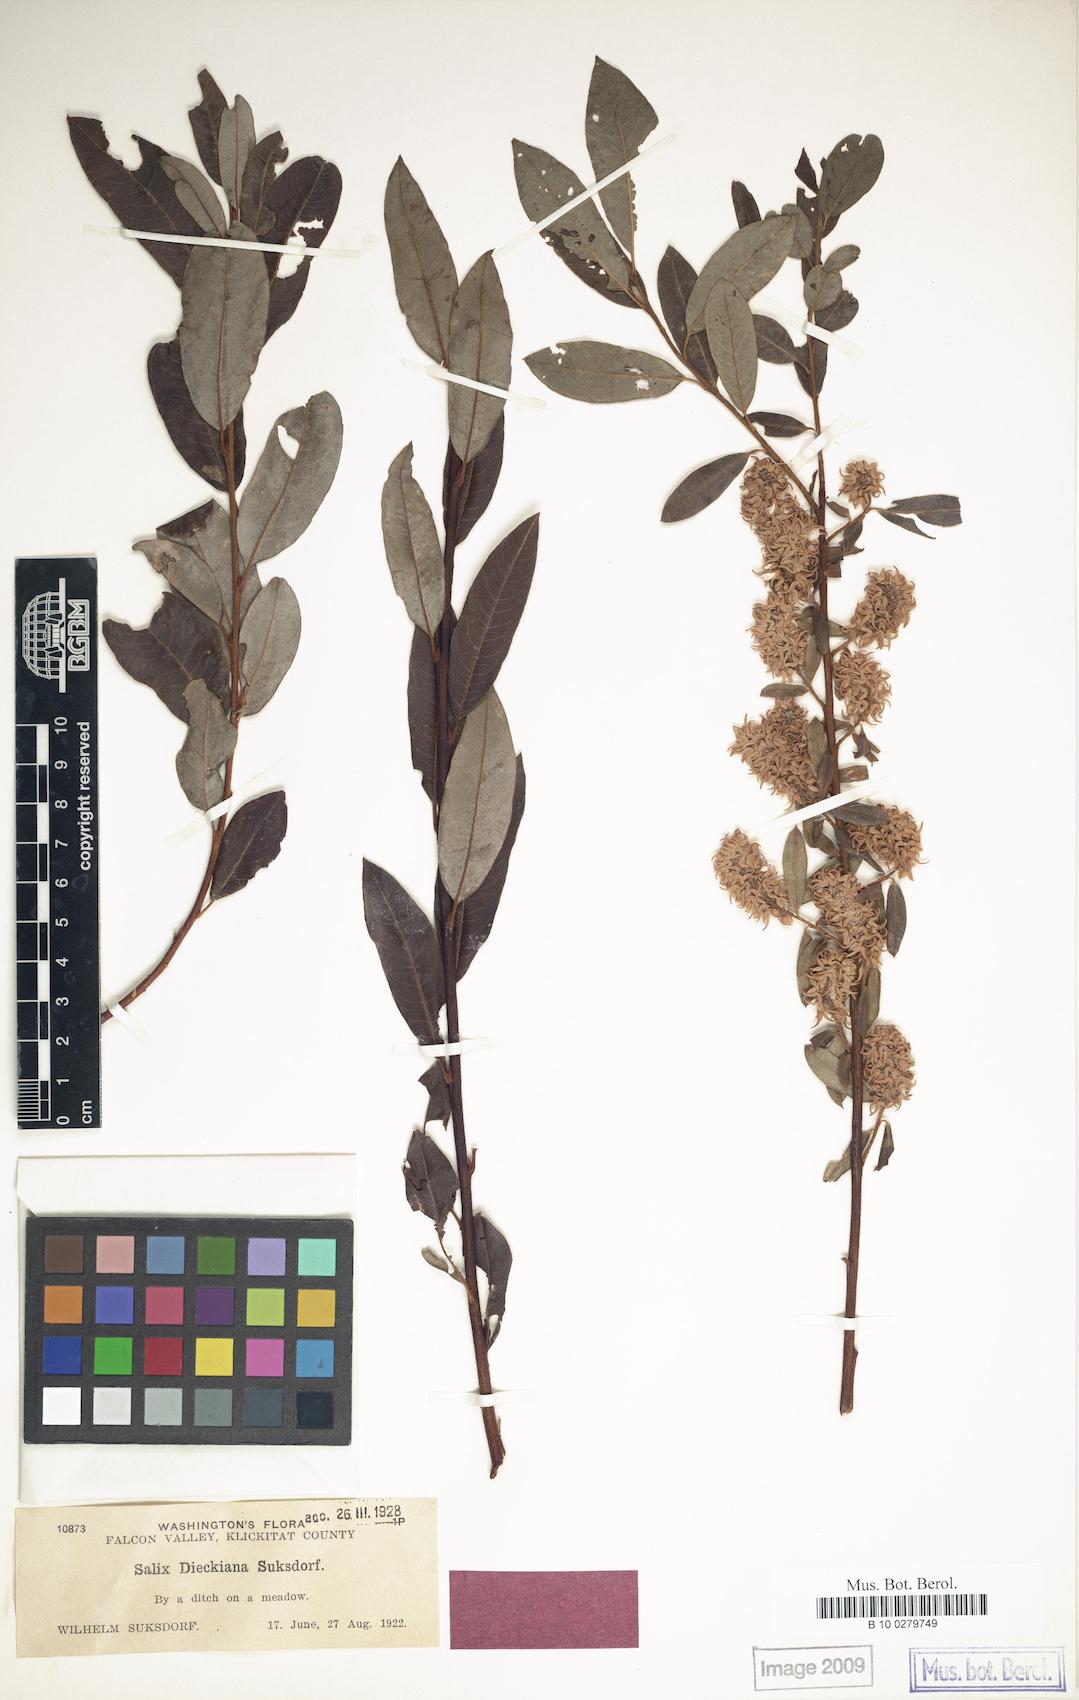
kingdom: Plantae
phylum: Tracheophyta
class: Magnoliopsida
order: Malpighiales
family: Salicaceae
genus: Salix
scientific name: Salix dieckiana
